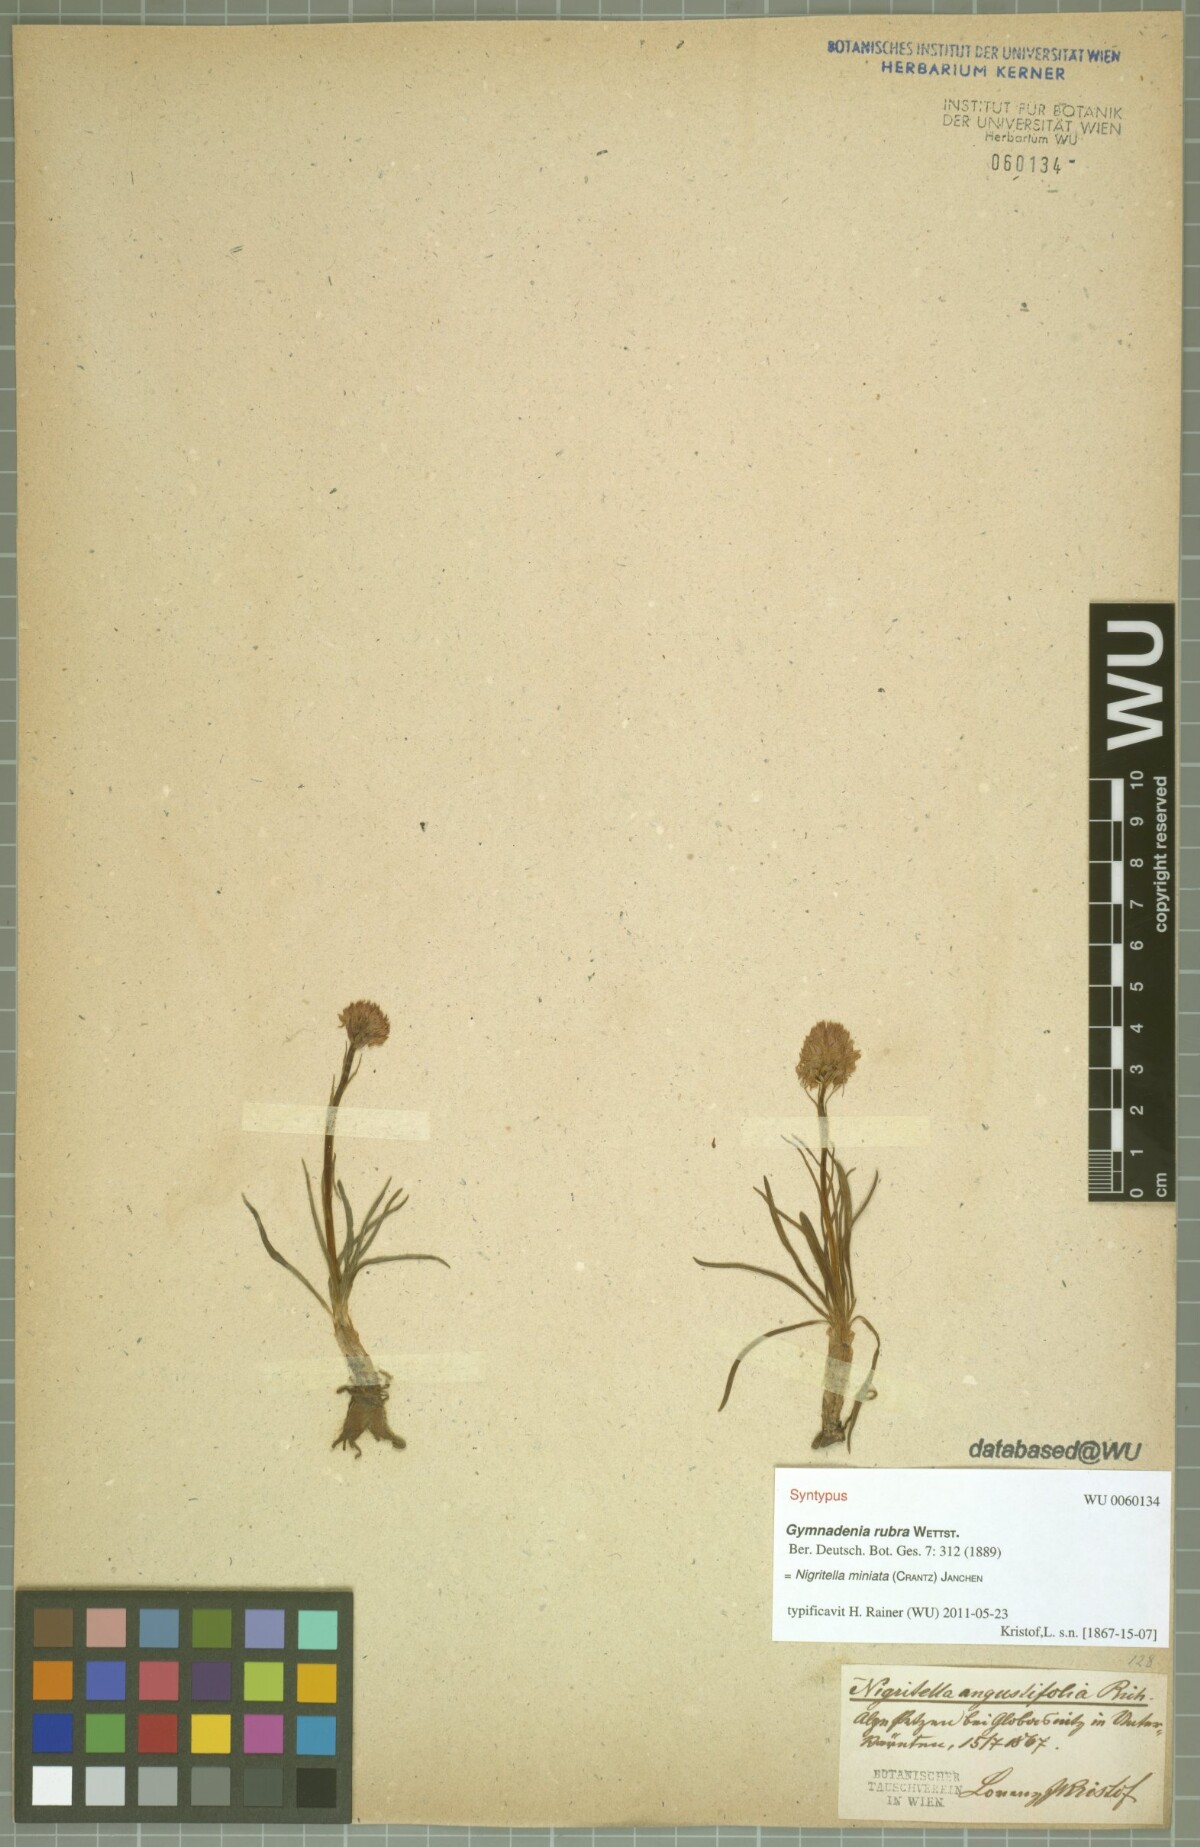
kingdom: Plantae
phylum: Tracheophyta
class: Liliopsida
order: Asparagales
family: Orchidaceae
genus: Gymnadenia
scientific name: Gymnadenia miniata
